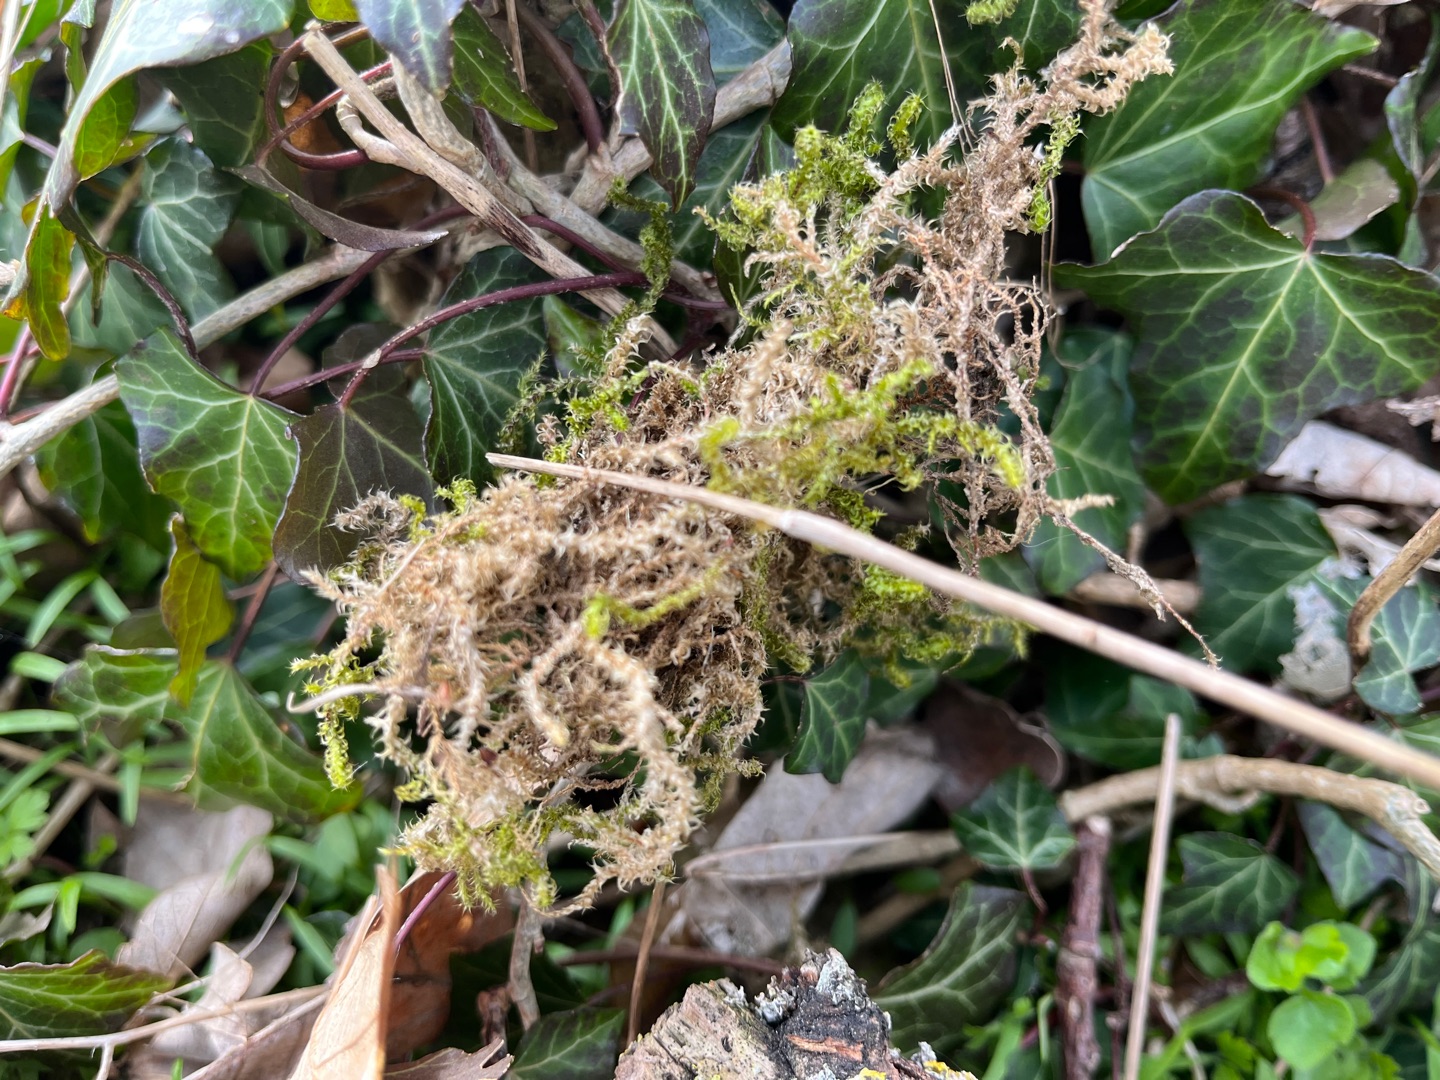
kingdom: Plantae
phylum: Bryophyta
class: Bryopsida
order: Hypnales
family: Hylocomiaceae
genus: Rhytidiadelphus
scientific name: Rhytidiadelphus squarrosus
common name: Plæne-kransemos
